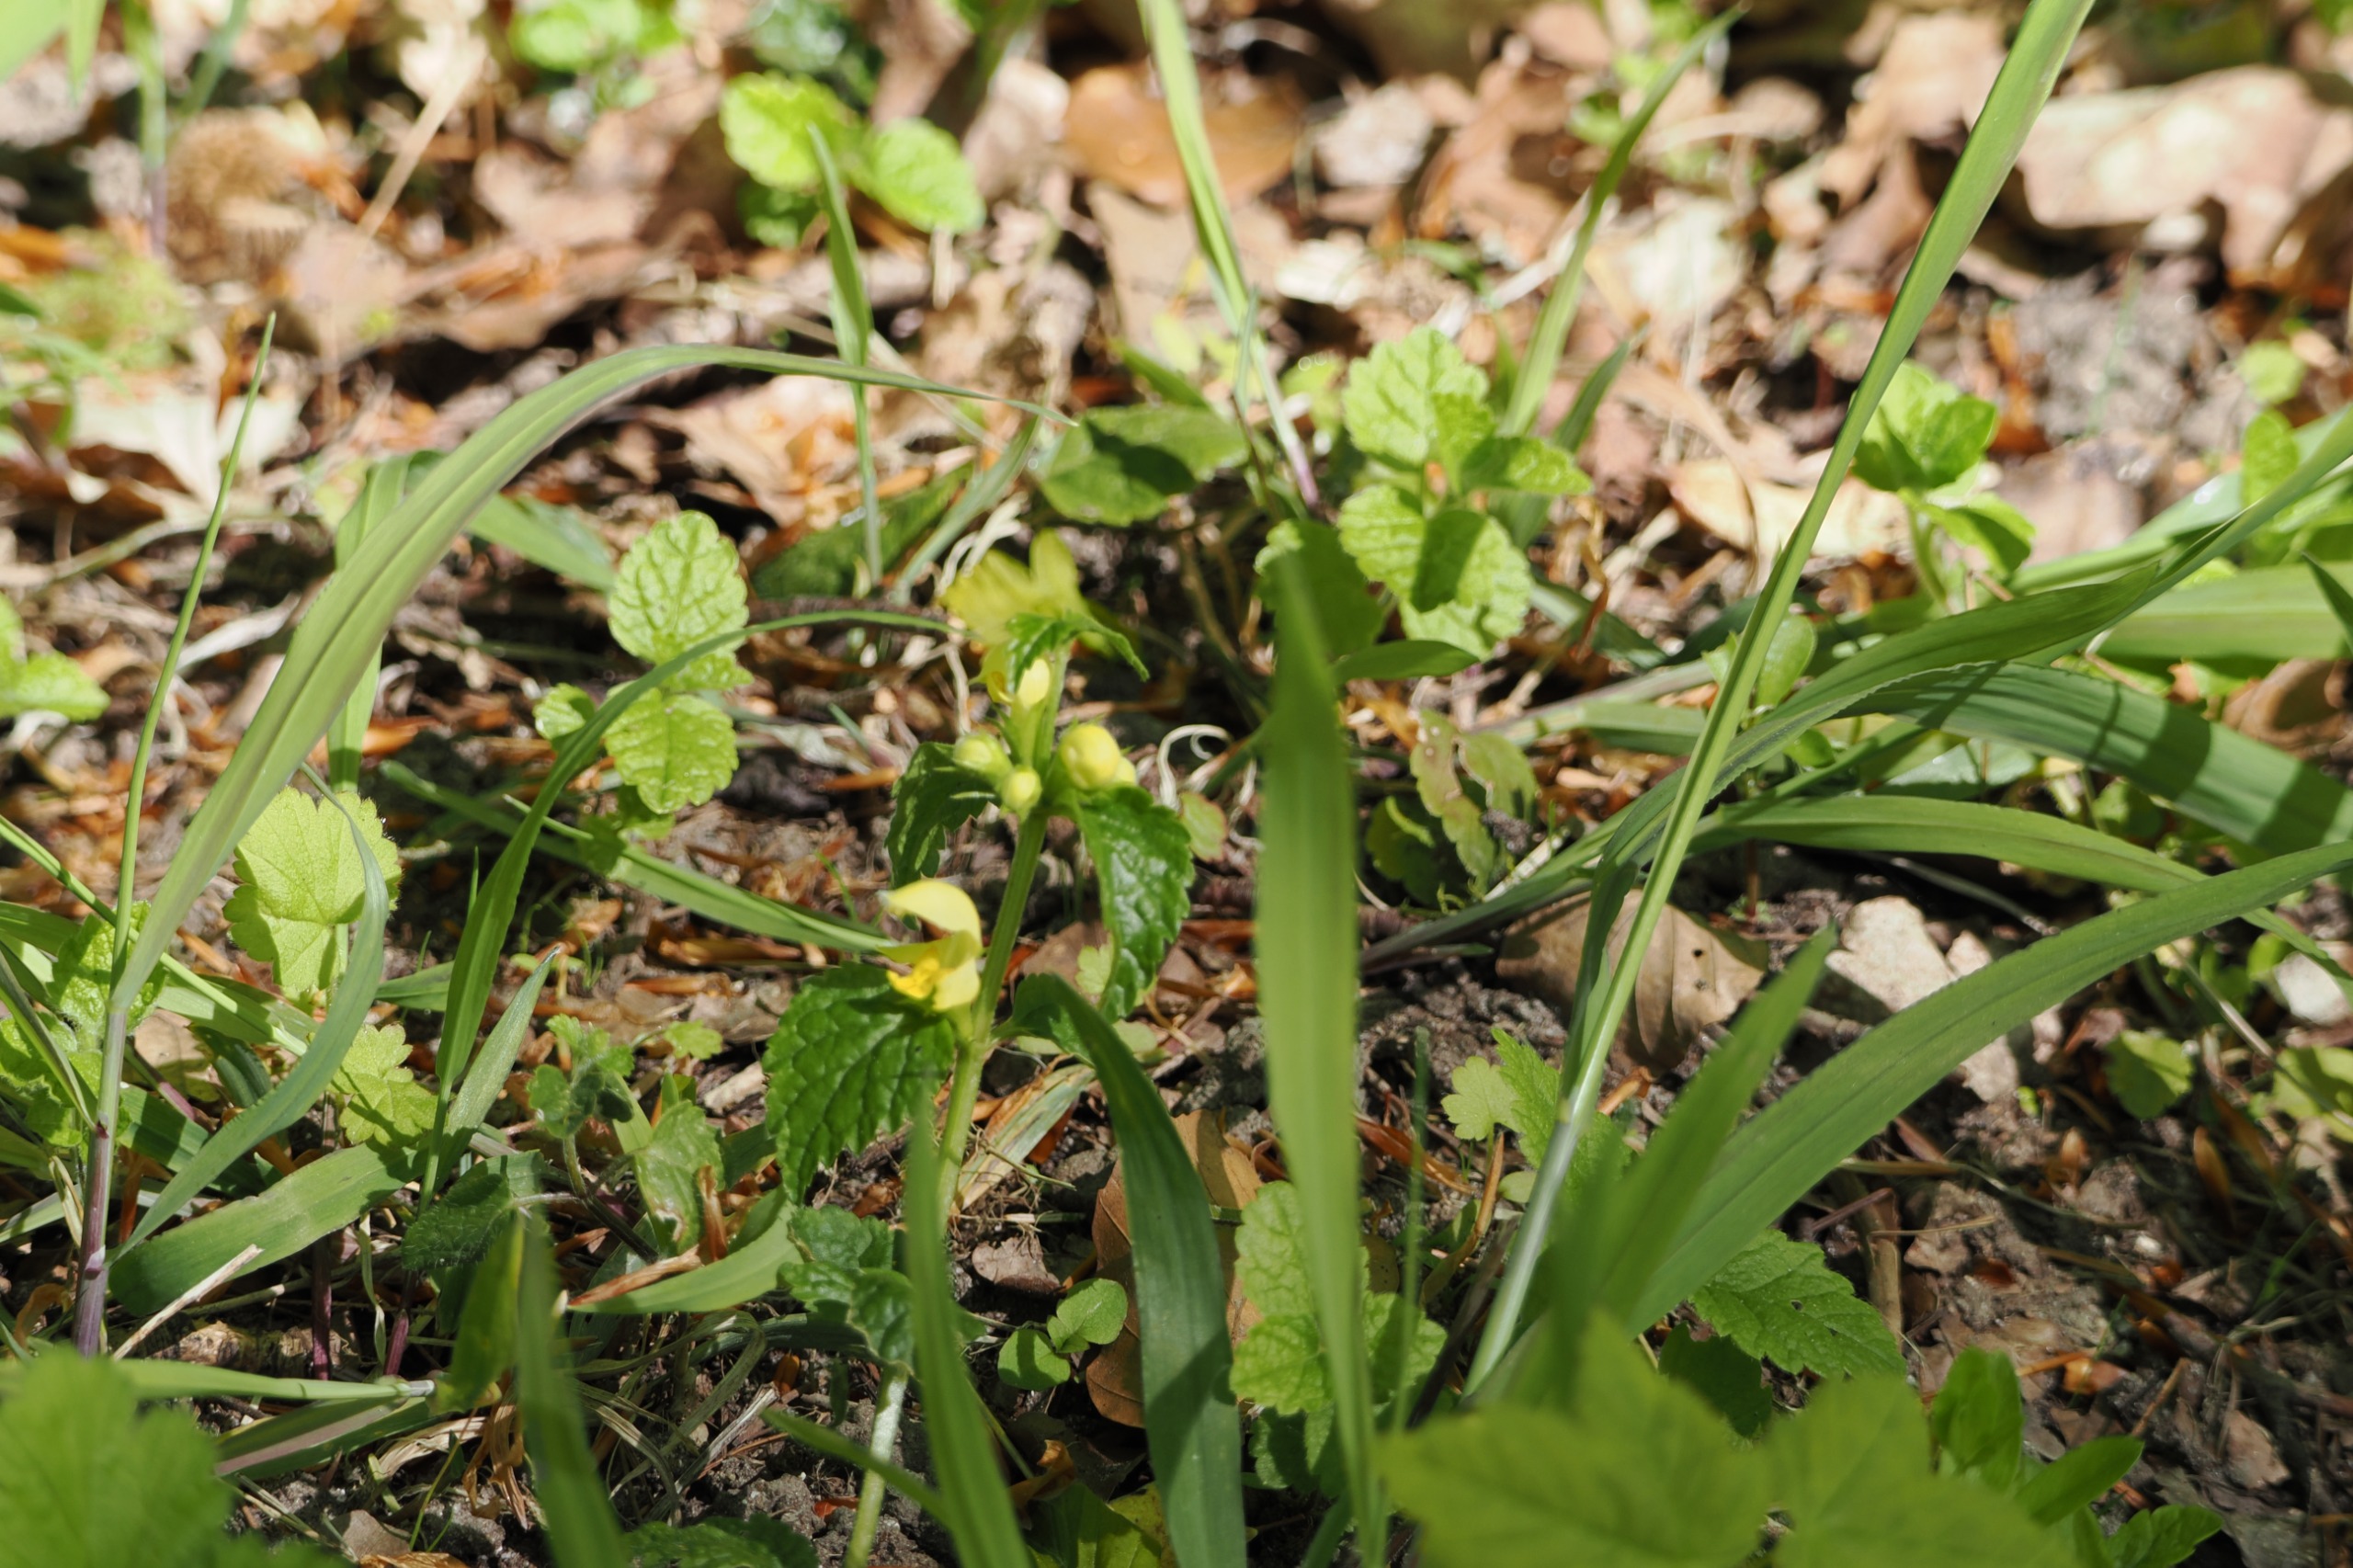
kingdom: Plantae
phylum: Tracheophyta
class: Magnoliopsida
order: Lamiales
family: Lamiaceae
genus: Lamium
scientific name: Lamium galeobdolon
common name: Almindelig guldnælde
